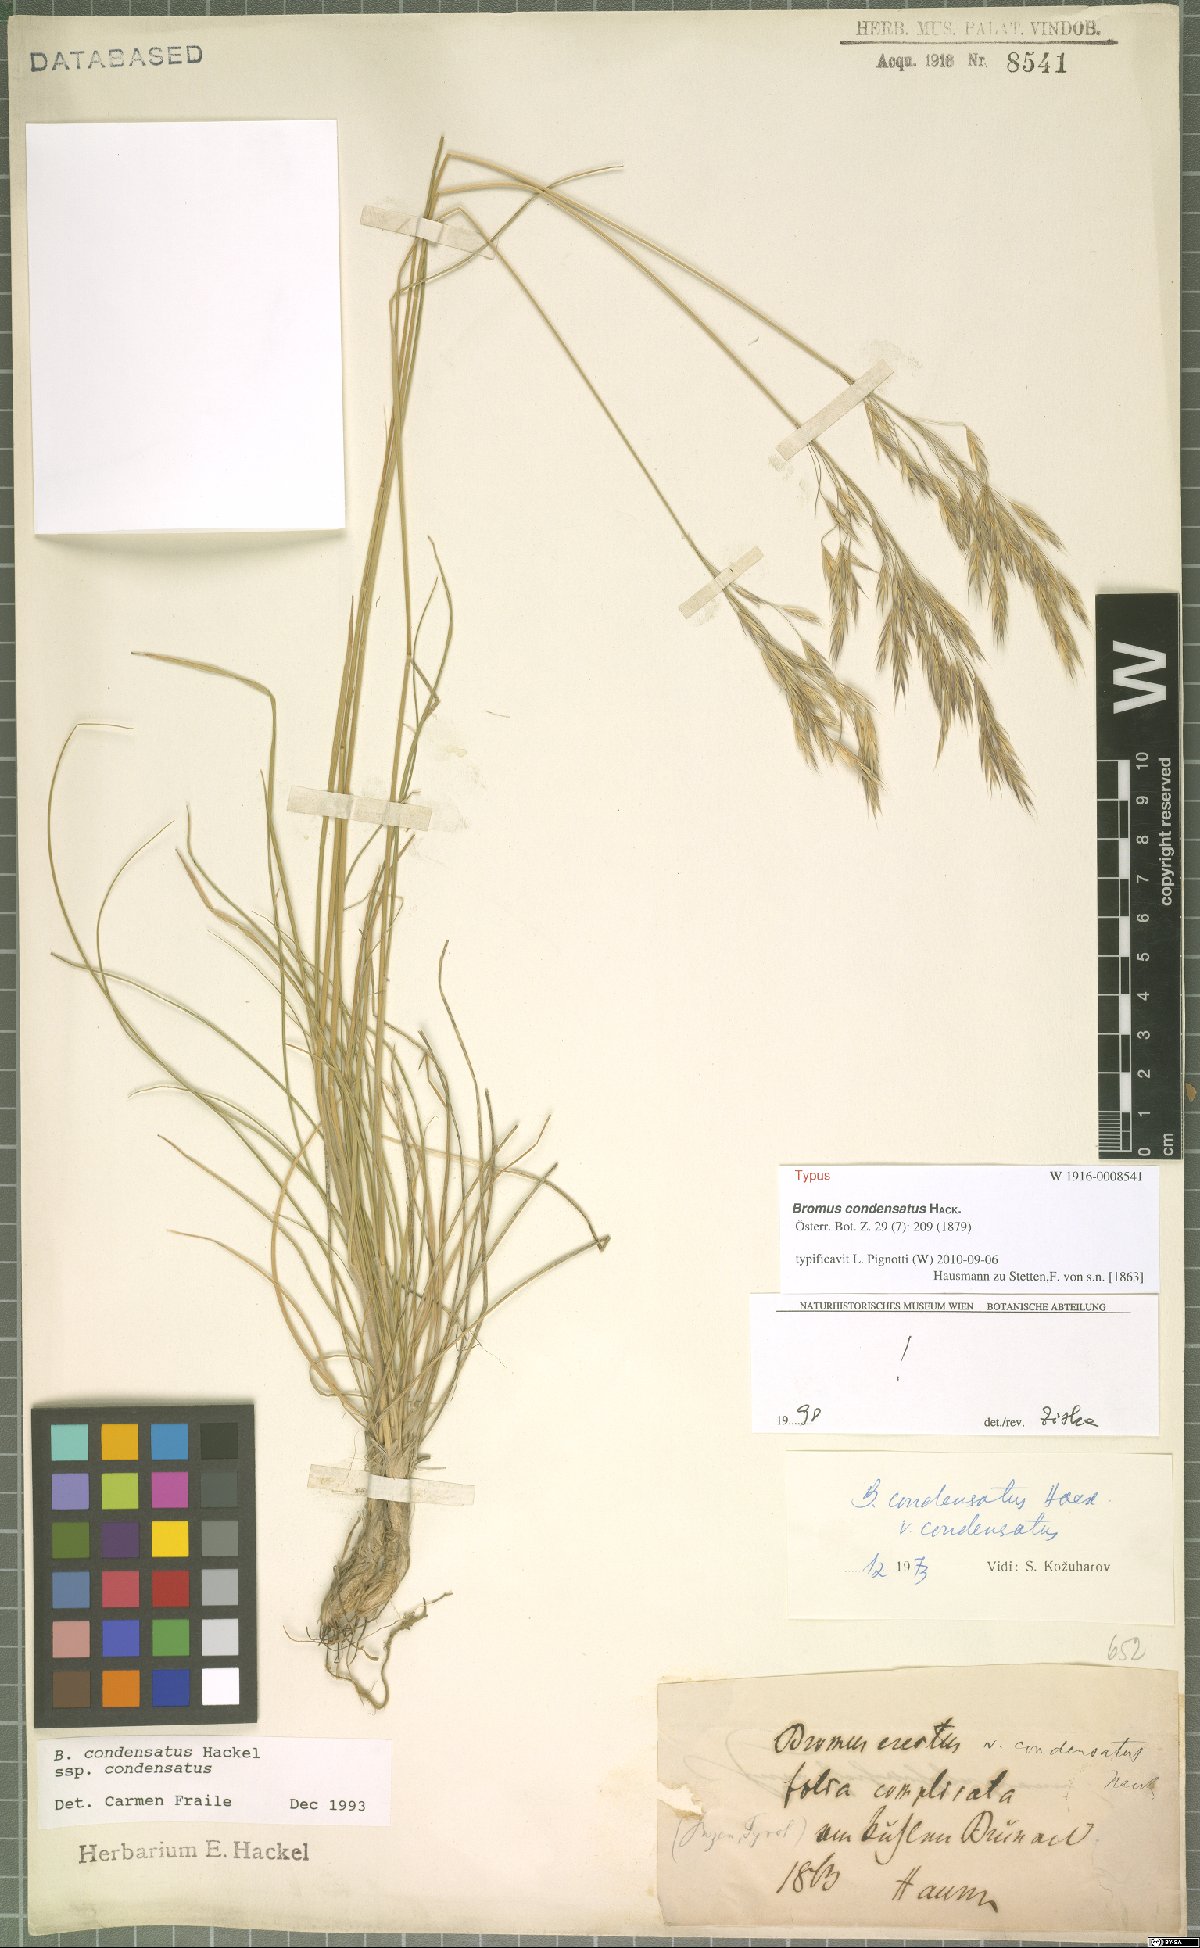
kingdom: Plantae
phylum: Tracheophyta
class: Liliopsida
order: Poales
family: Poaceae
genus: Bromus
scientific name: Bromus condensatus
